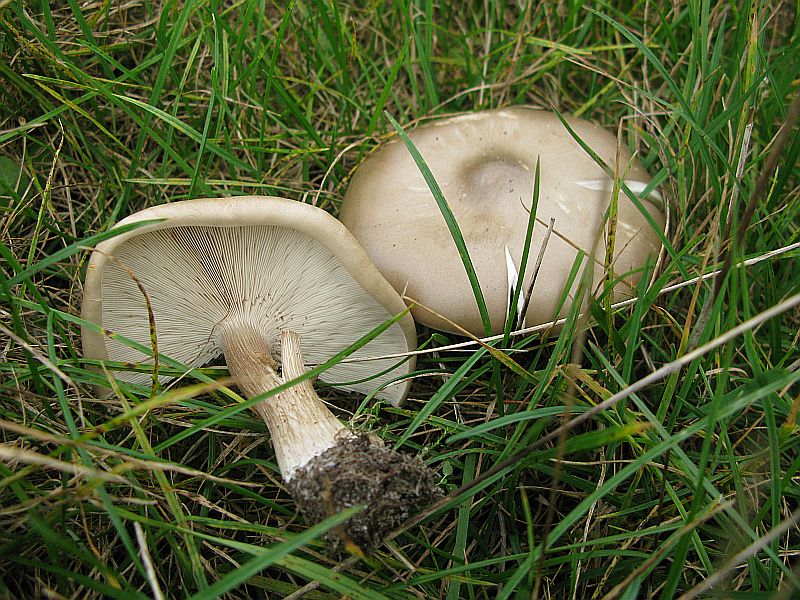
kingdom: Fungi
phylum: Basidiomycota
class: Agaricomycetes
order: Agaricales
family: Tricholomataceae
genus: Melanoleuca
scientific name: Melanoleuca grammopodia
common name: stribestokket munkehat
